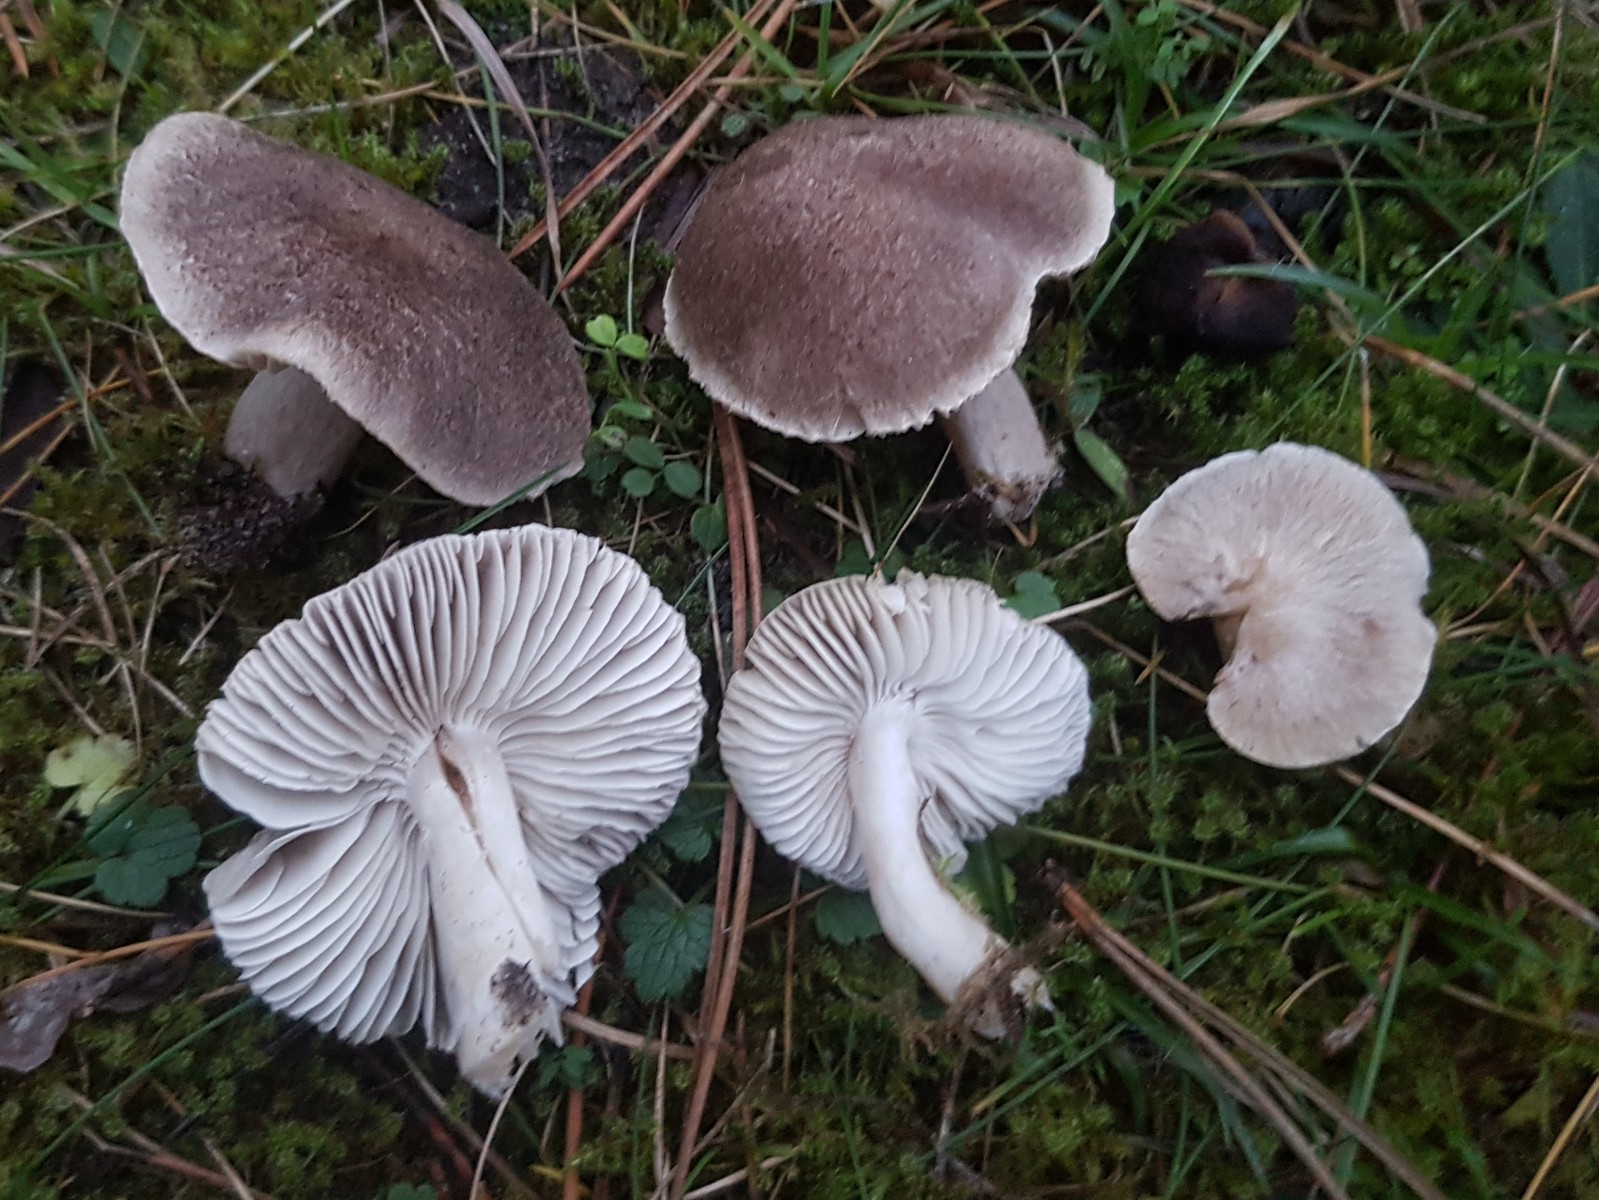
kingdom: Fungi
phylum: Basidiomycota
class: Agaricomycetes
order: Agaricales
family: Tricholomataceae
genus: Tricholoma
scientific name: Tricholoma terreum
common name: jordfarvet ridderhat
